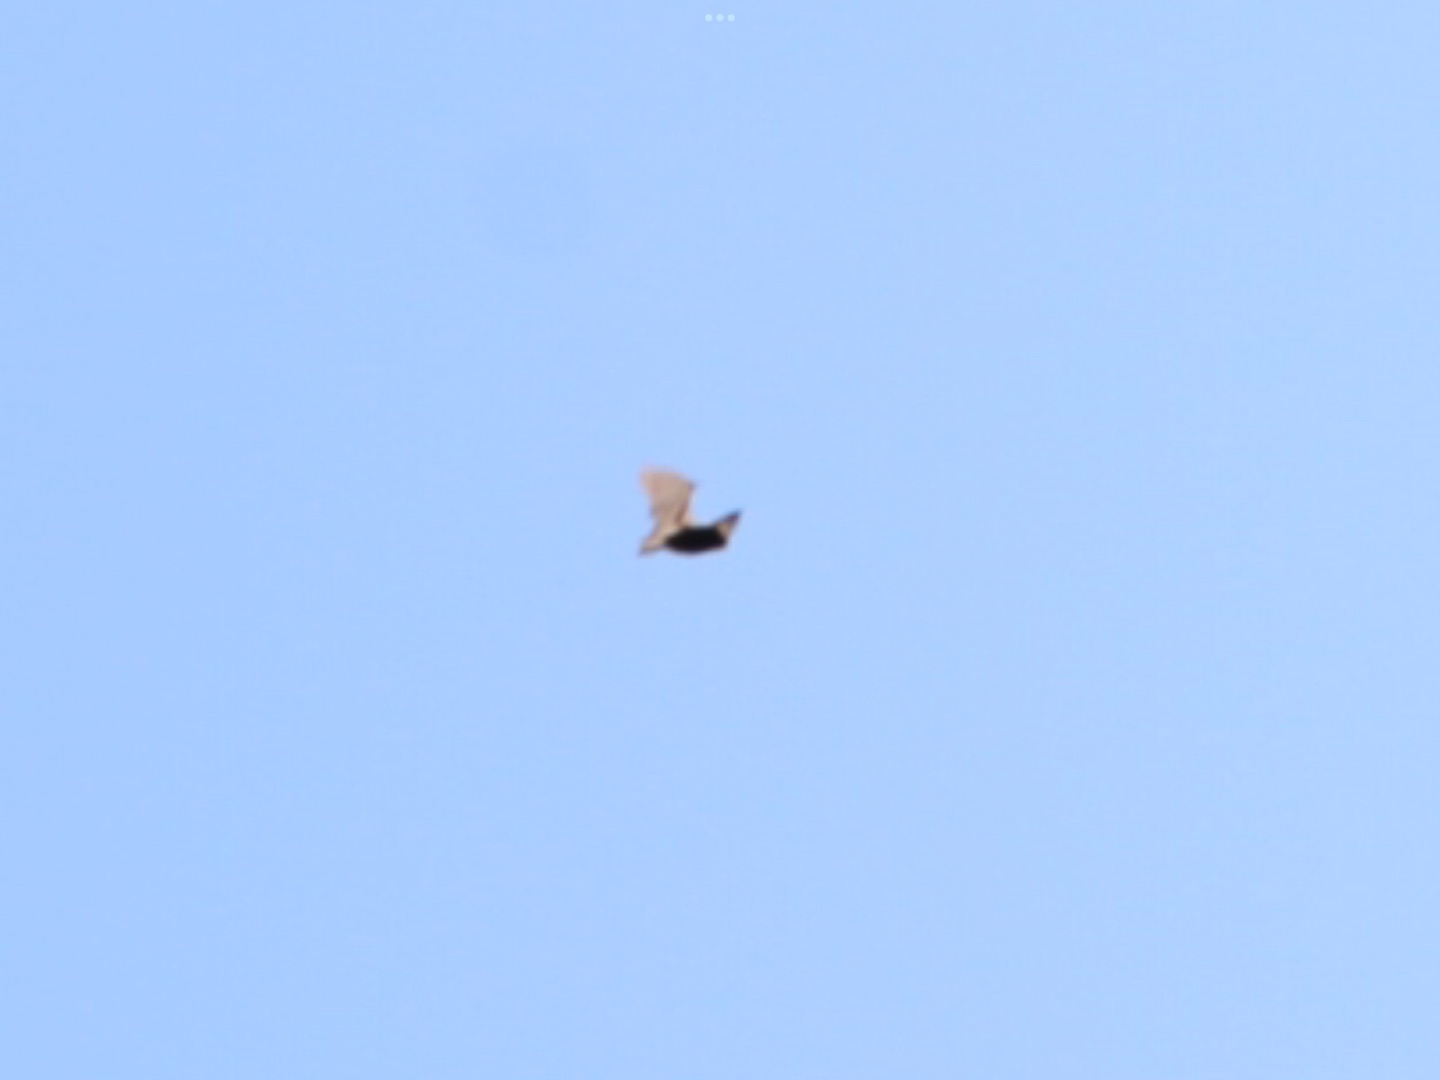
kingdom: Animalia
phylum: Chordata
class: Mammalia
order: Chiroptera
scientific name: Chiroptera
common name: Flagermus
